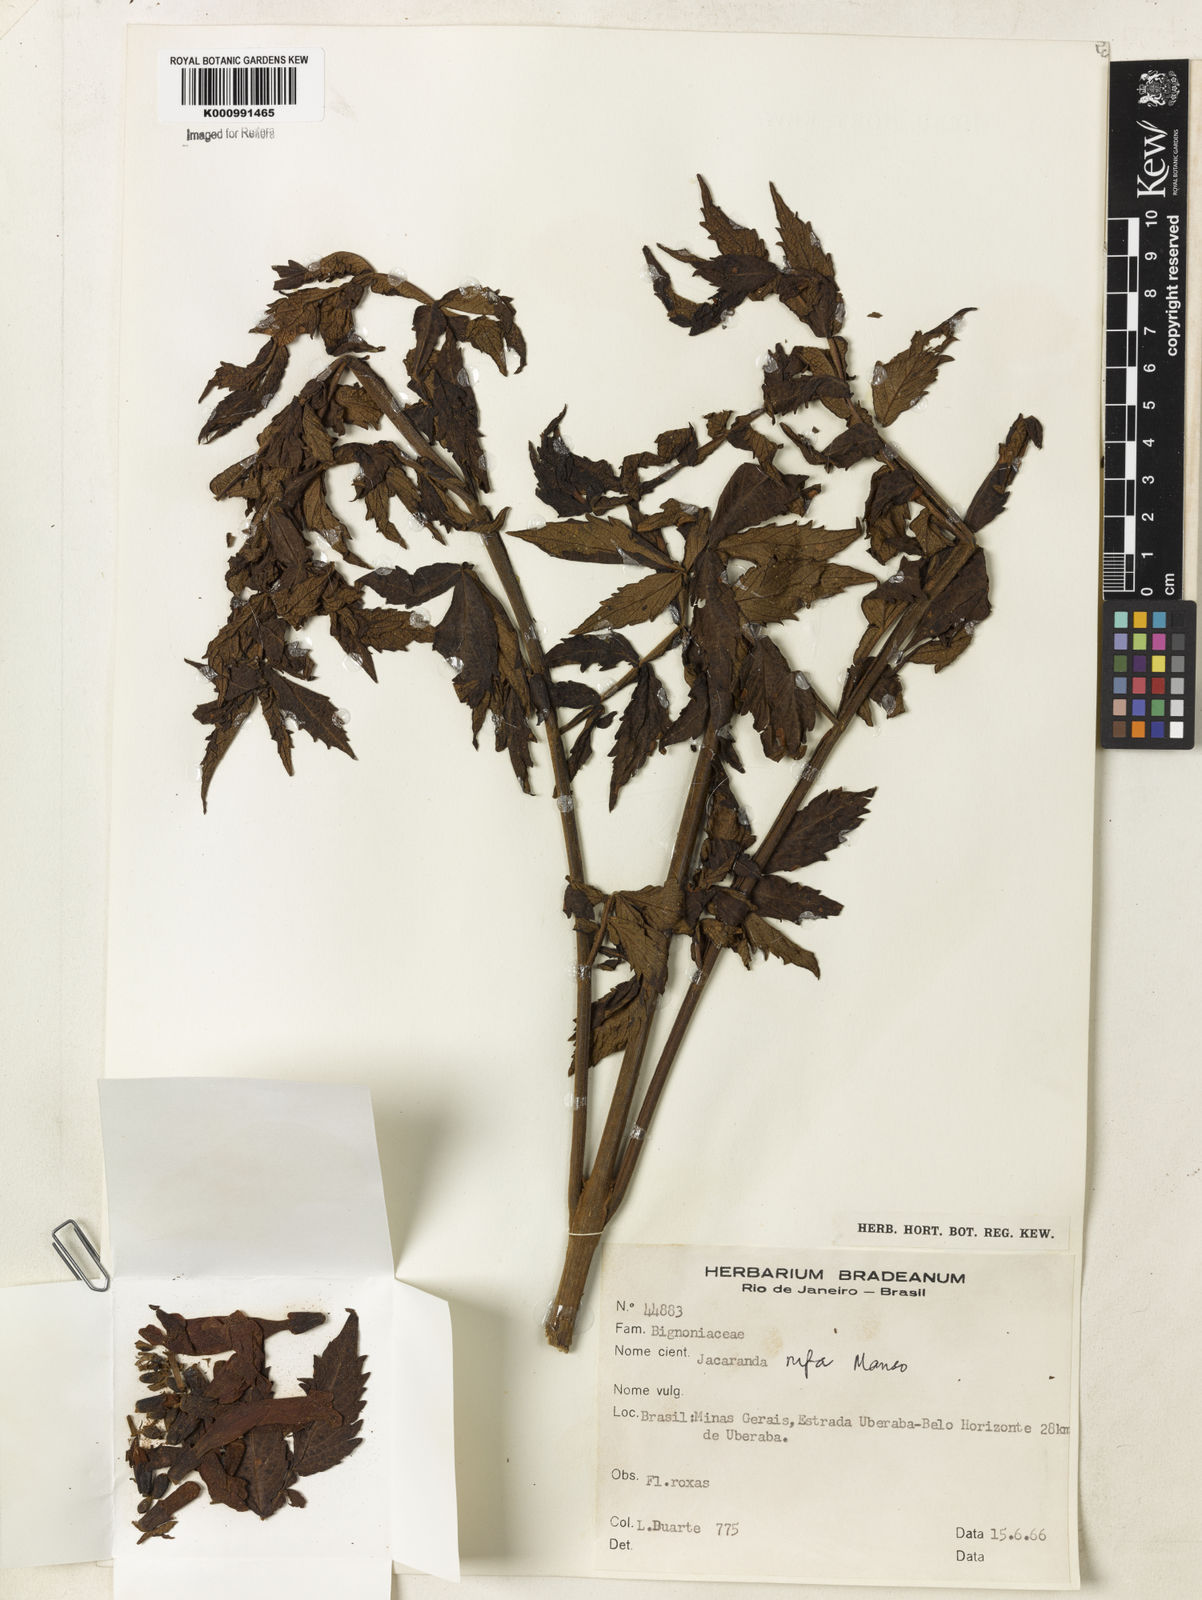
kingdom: Plantae
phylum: Tracheophyta
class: Magnoliopsida
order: Lamiales
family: Bignoniaceae
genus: Jacaranda
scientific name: Jacaranda rufa
